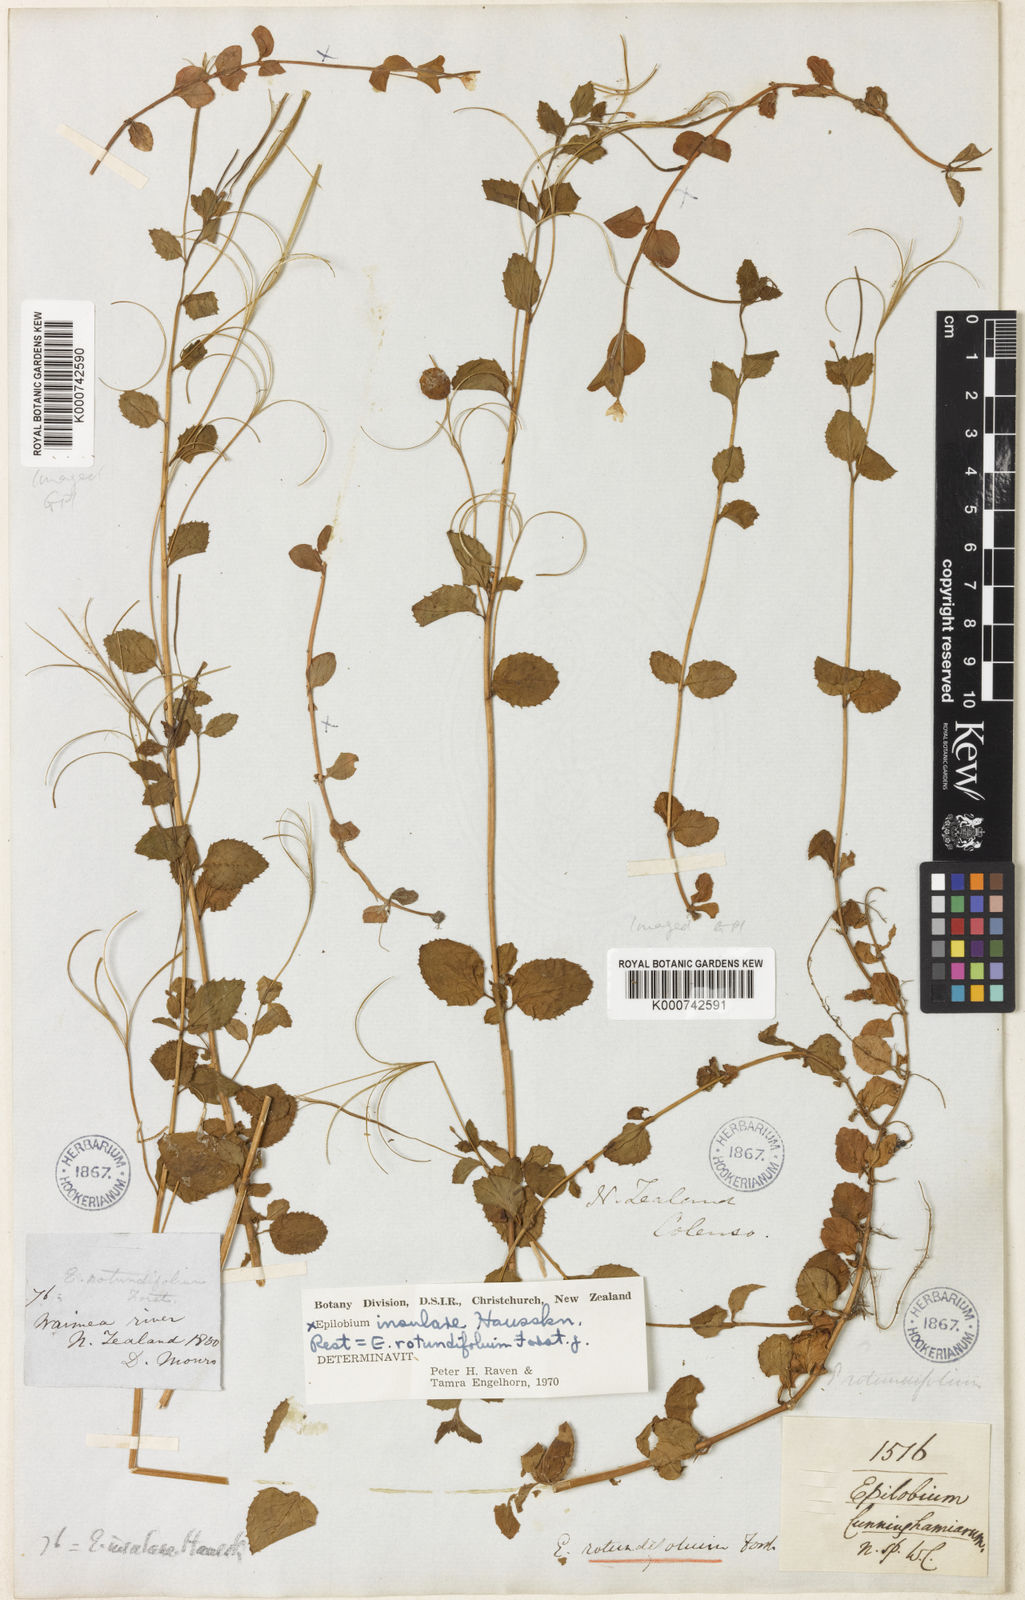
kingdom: Plantae
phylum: Tracheophyta
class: Magnoliopsida
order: Myrtales
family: Onagraceae
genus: Epilobium
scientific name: Epilobium insulare
